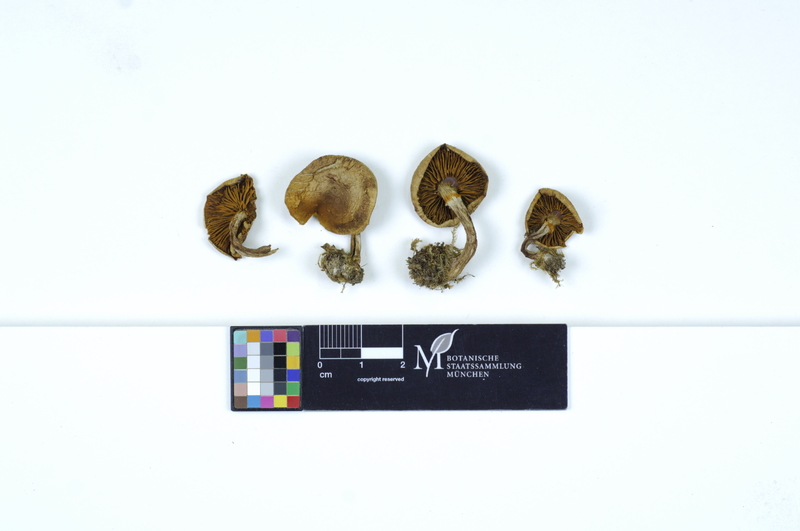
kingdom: Fungi
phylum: Basidiomycota
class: Agaricomycetes
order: Agaricales
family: Hymenogastraceae
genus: Gymnopilus
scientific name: Gymnopilus penetrans
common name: Common rustgill
